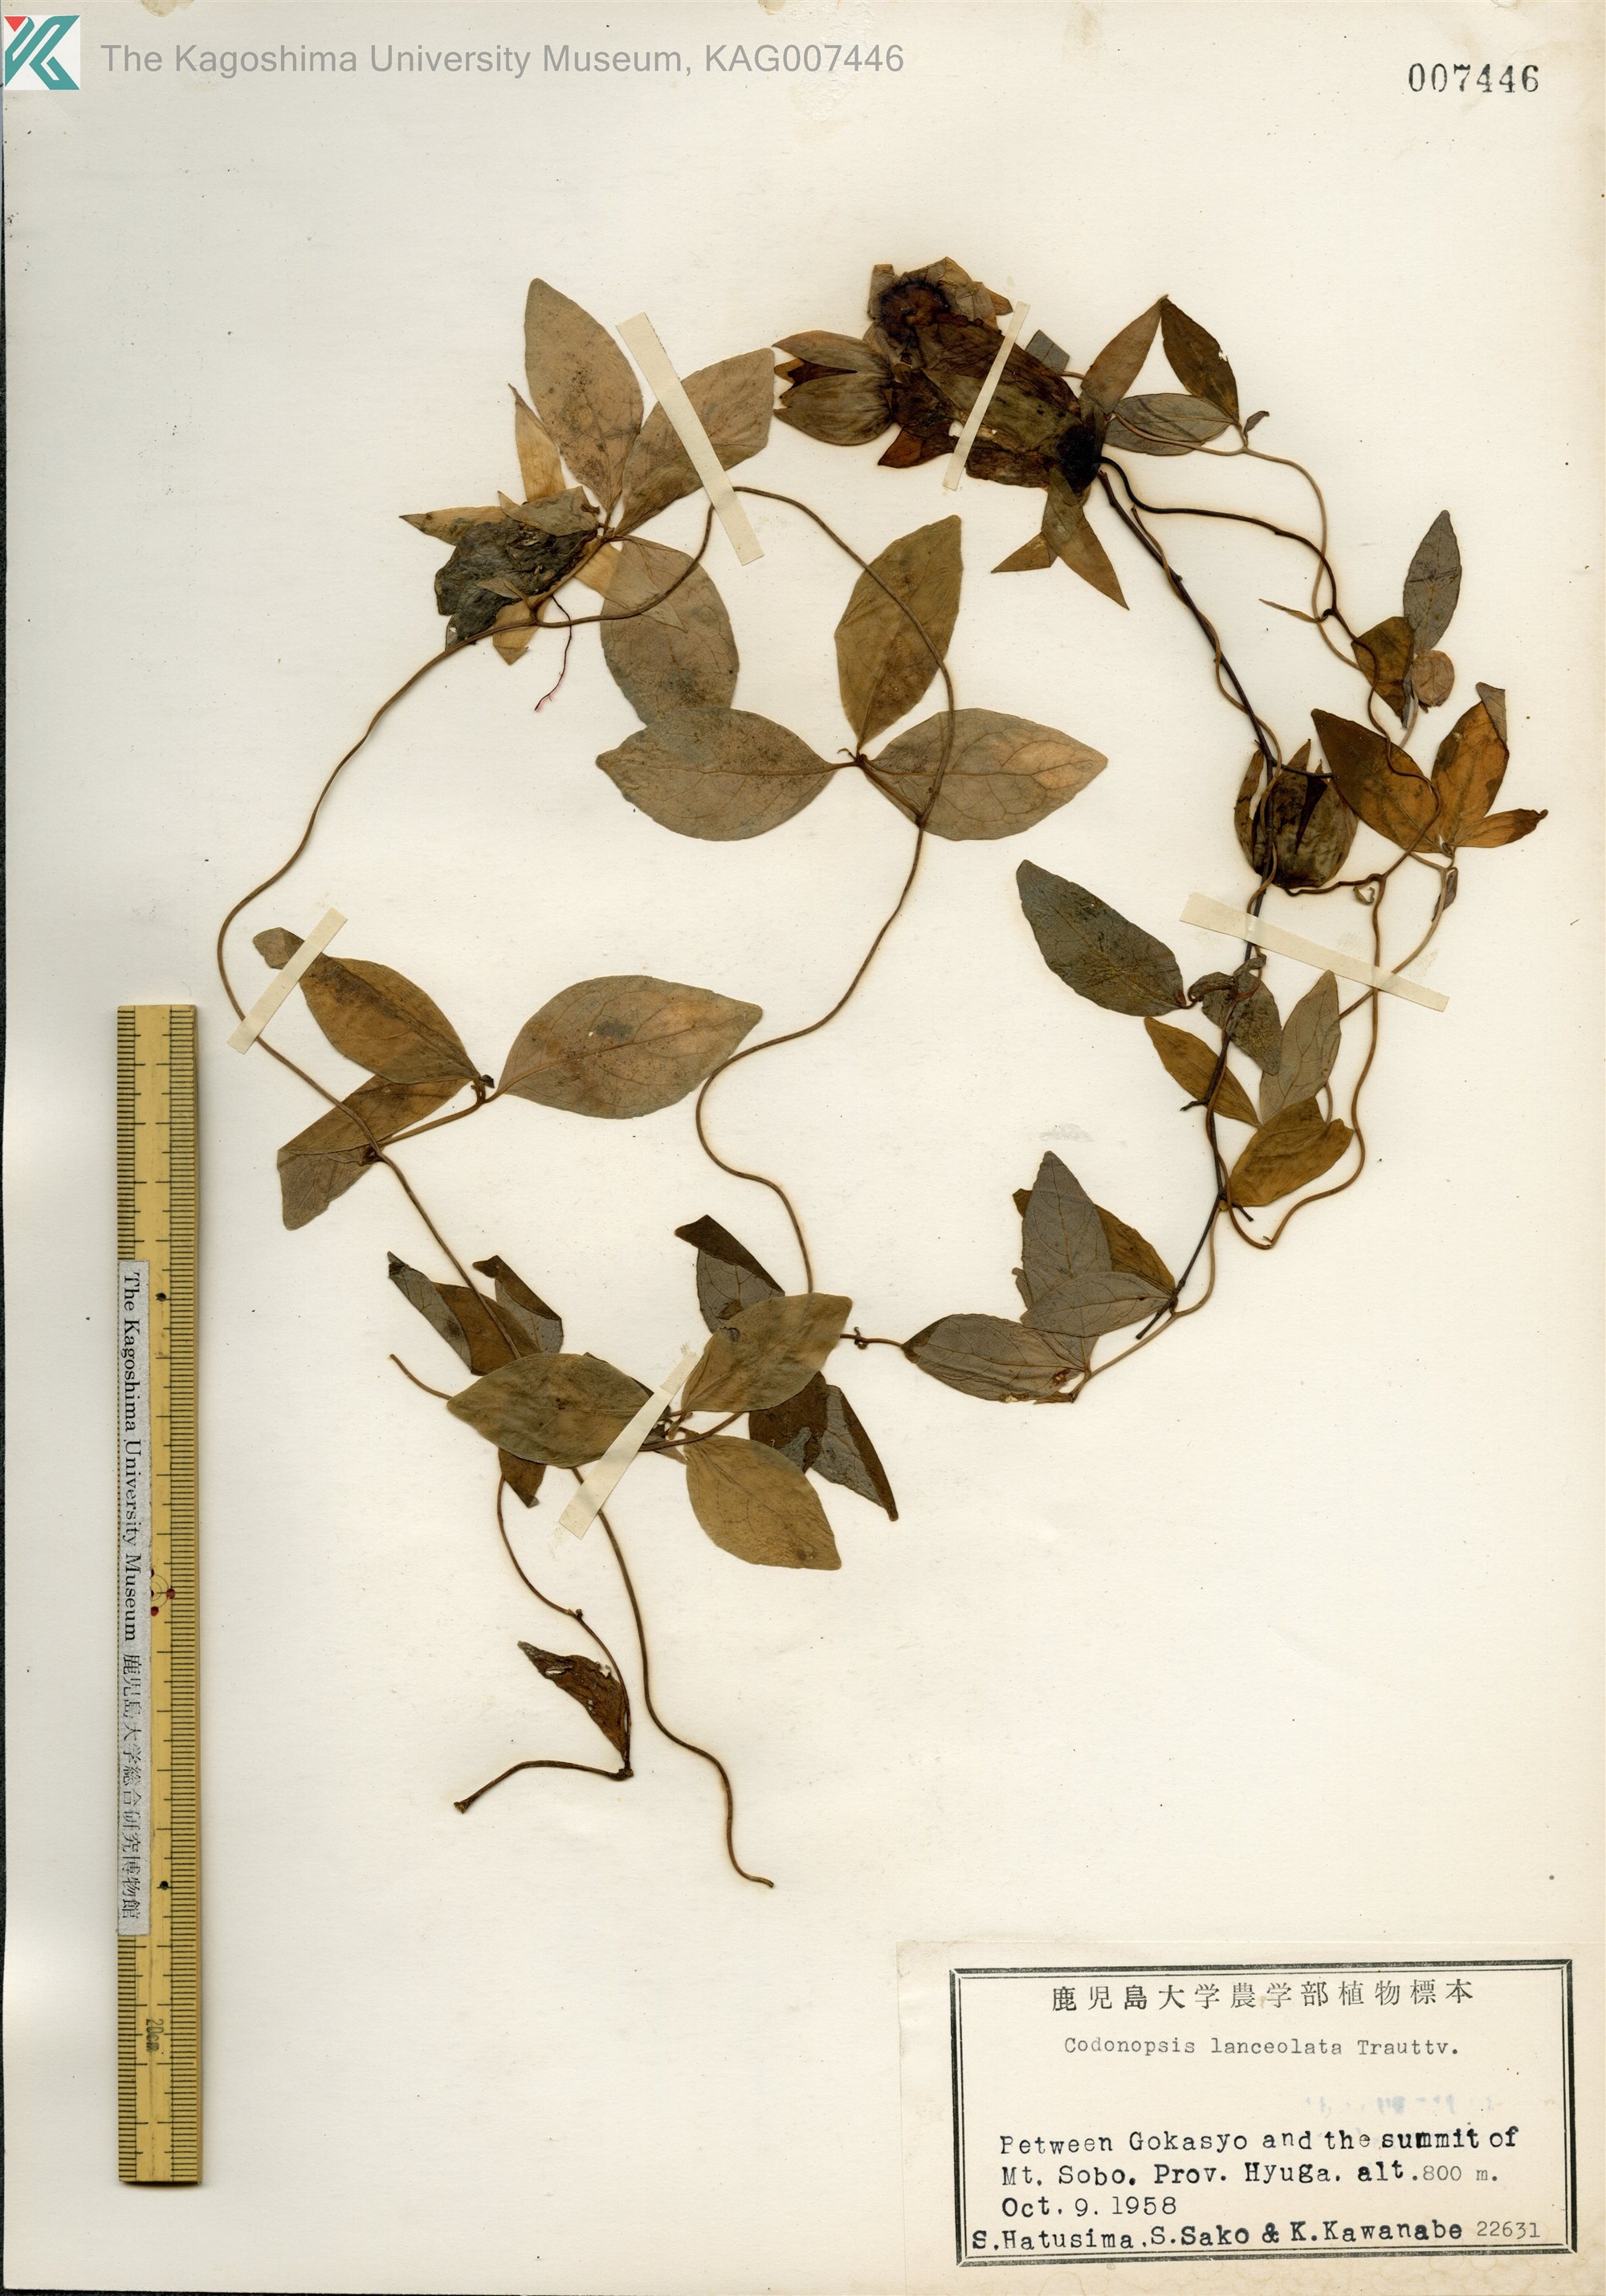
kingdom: Plantae
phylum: Tracheophyta
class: Magnoliopsida
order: Asterales
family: Campanulaceae
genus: Codonopsis
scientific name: Codonopsis lanceolata
